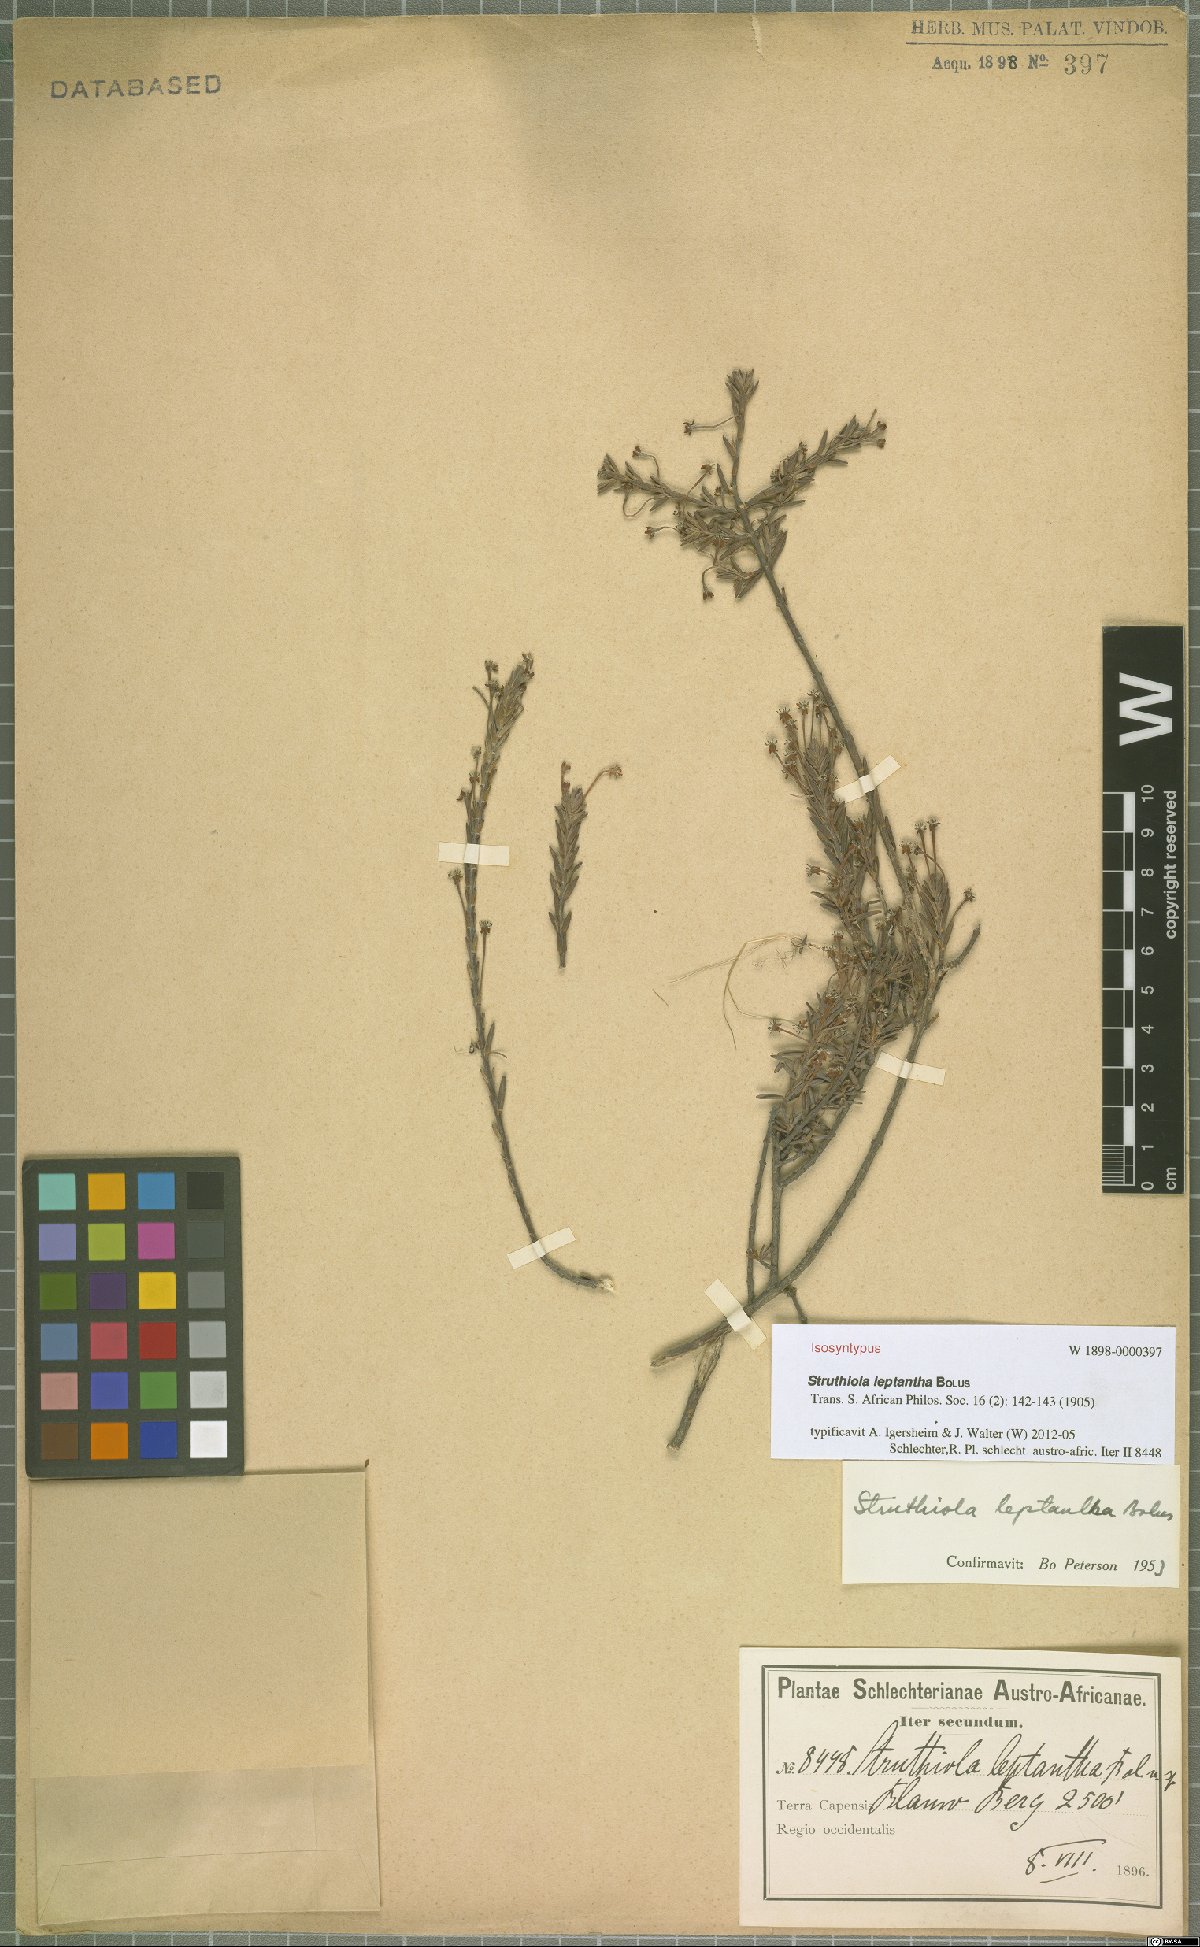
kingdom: Plantae
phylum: Tracheophyta
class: Magnoliopsida
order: Malvales
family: Thymelaeaceae
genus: Struthiola
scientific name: Struthiola leptantha
